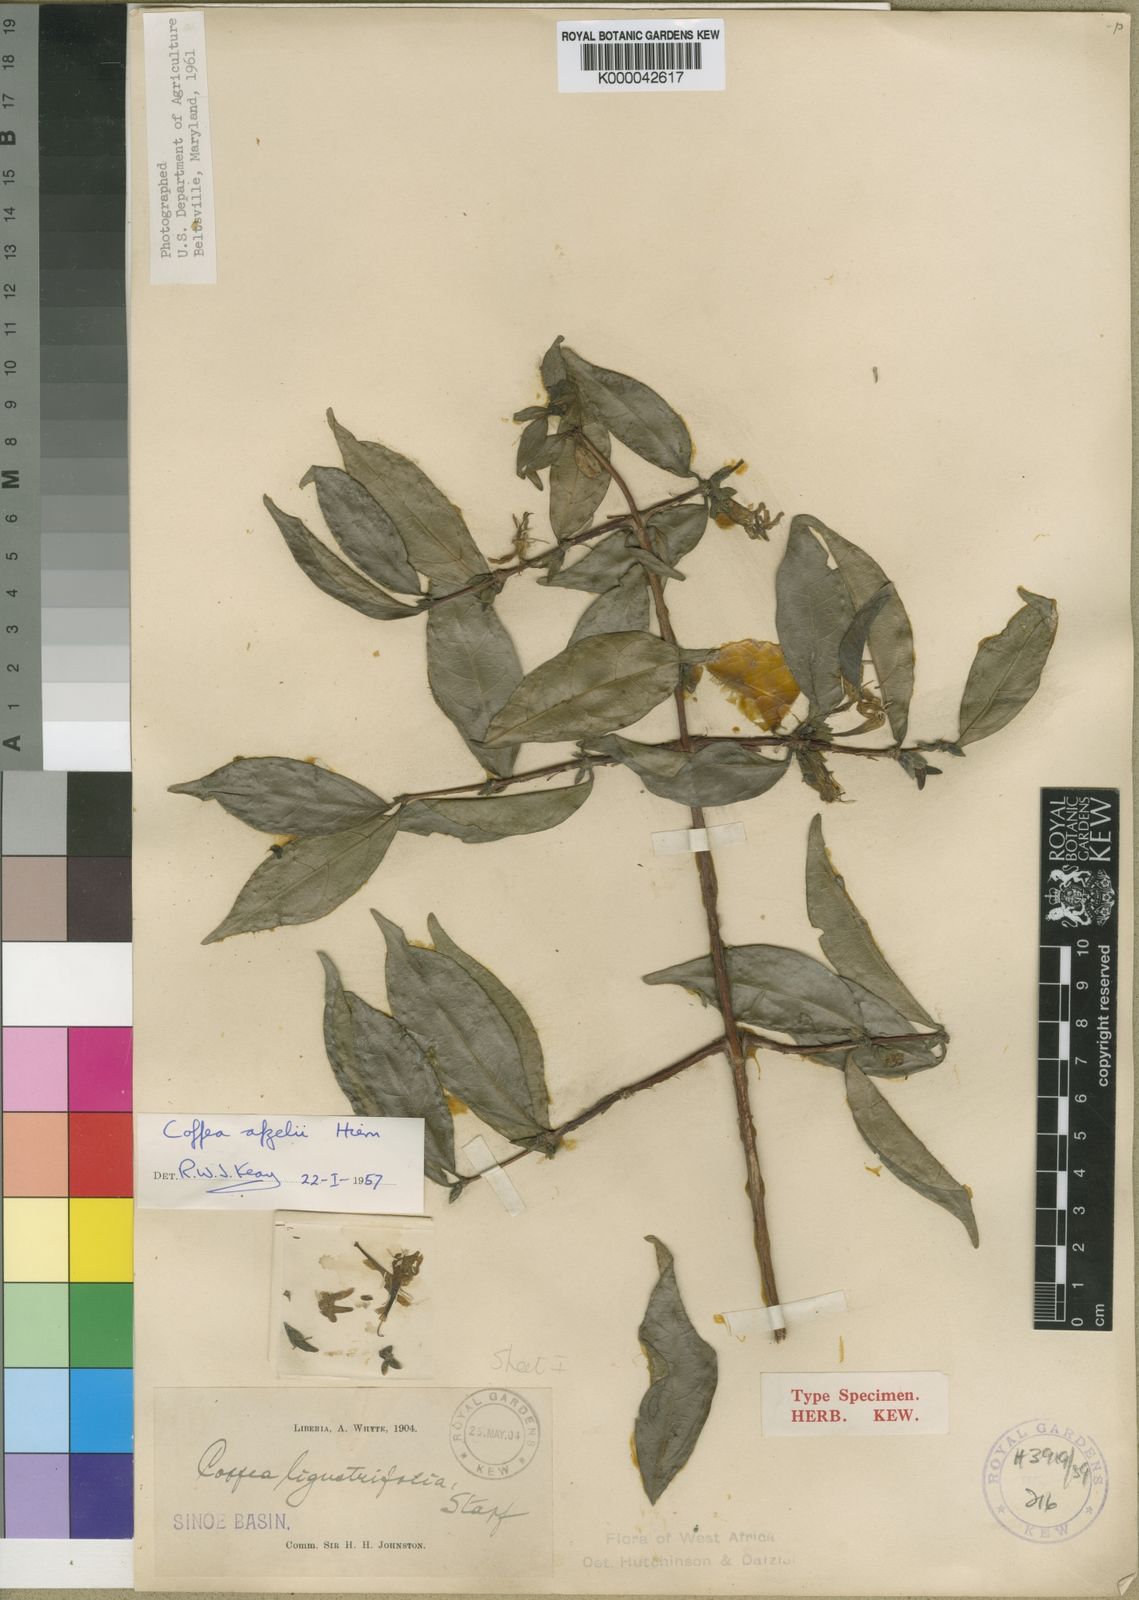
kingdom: Plantae
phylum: Tracheophyta
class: Magnoliopsida
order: Gentianales
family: Rubiaceae
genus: Argocoffeopsis
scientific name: Argocoffeopsis afzelii
